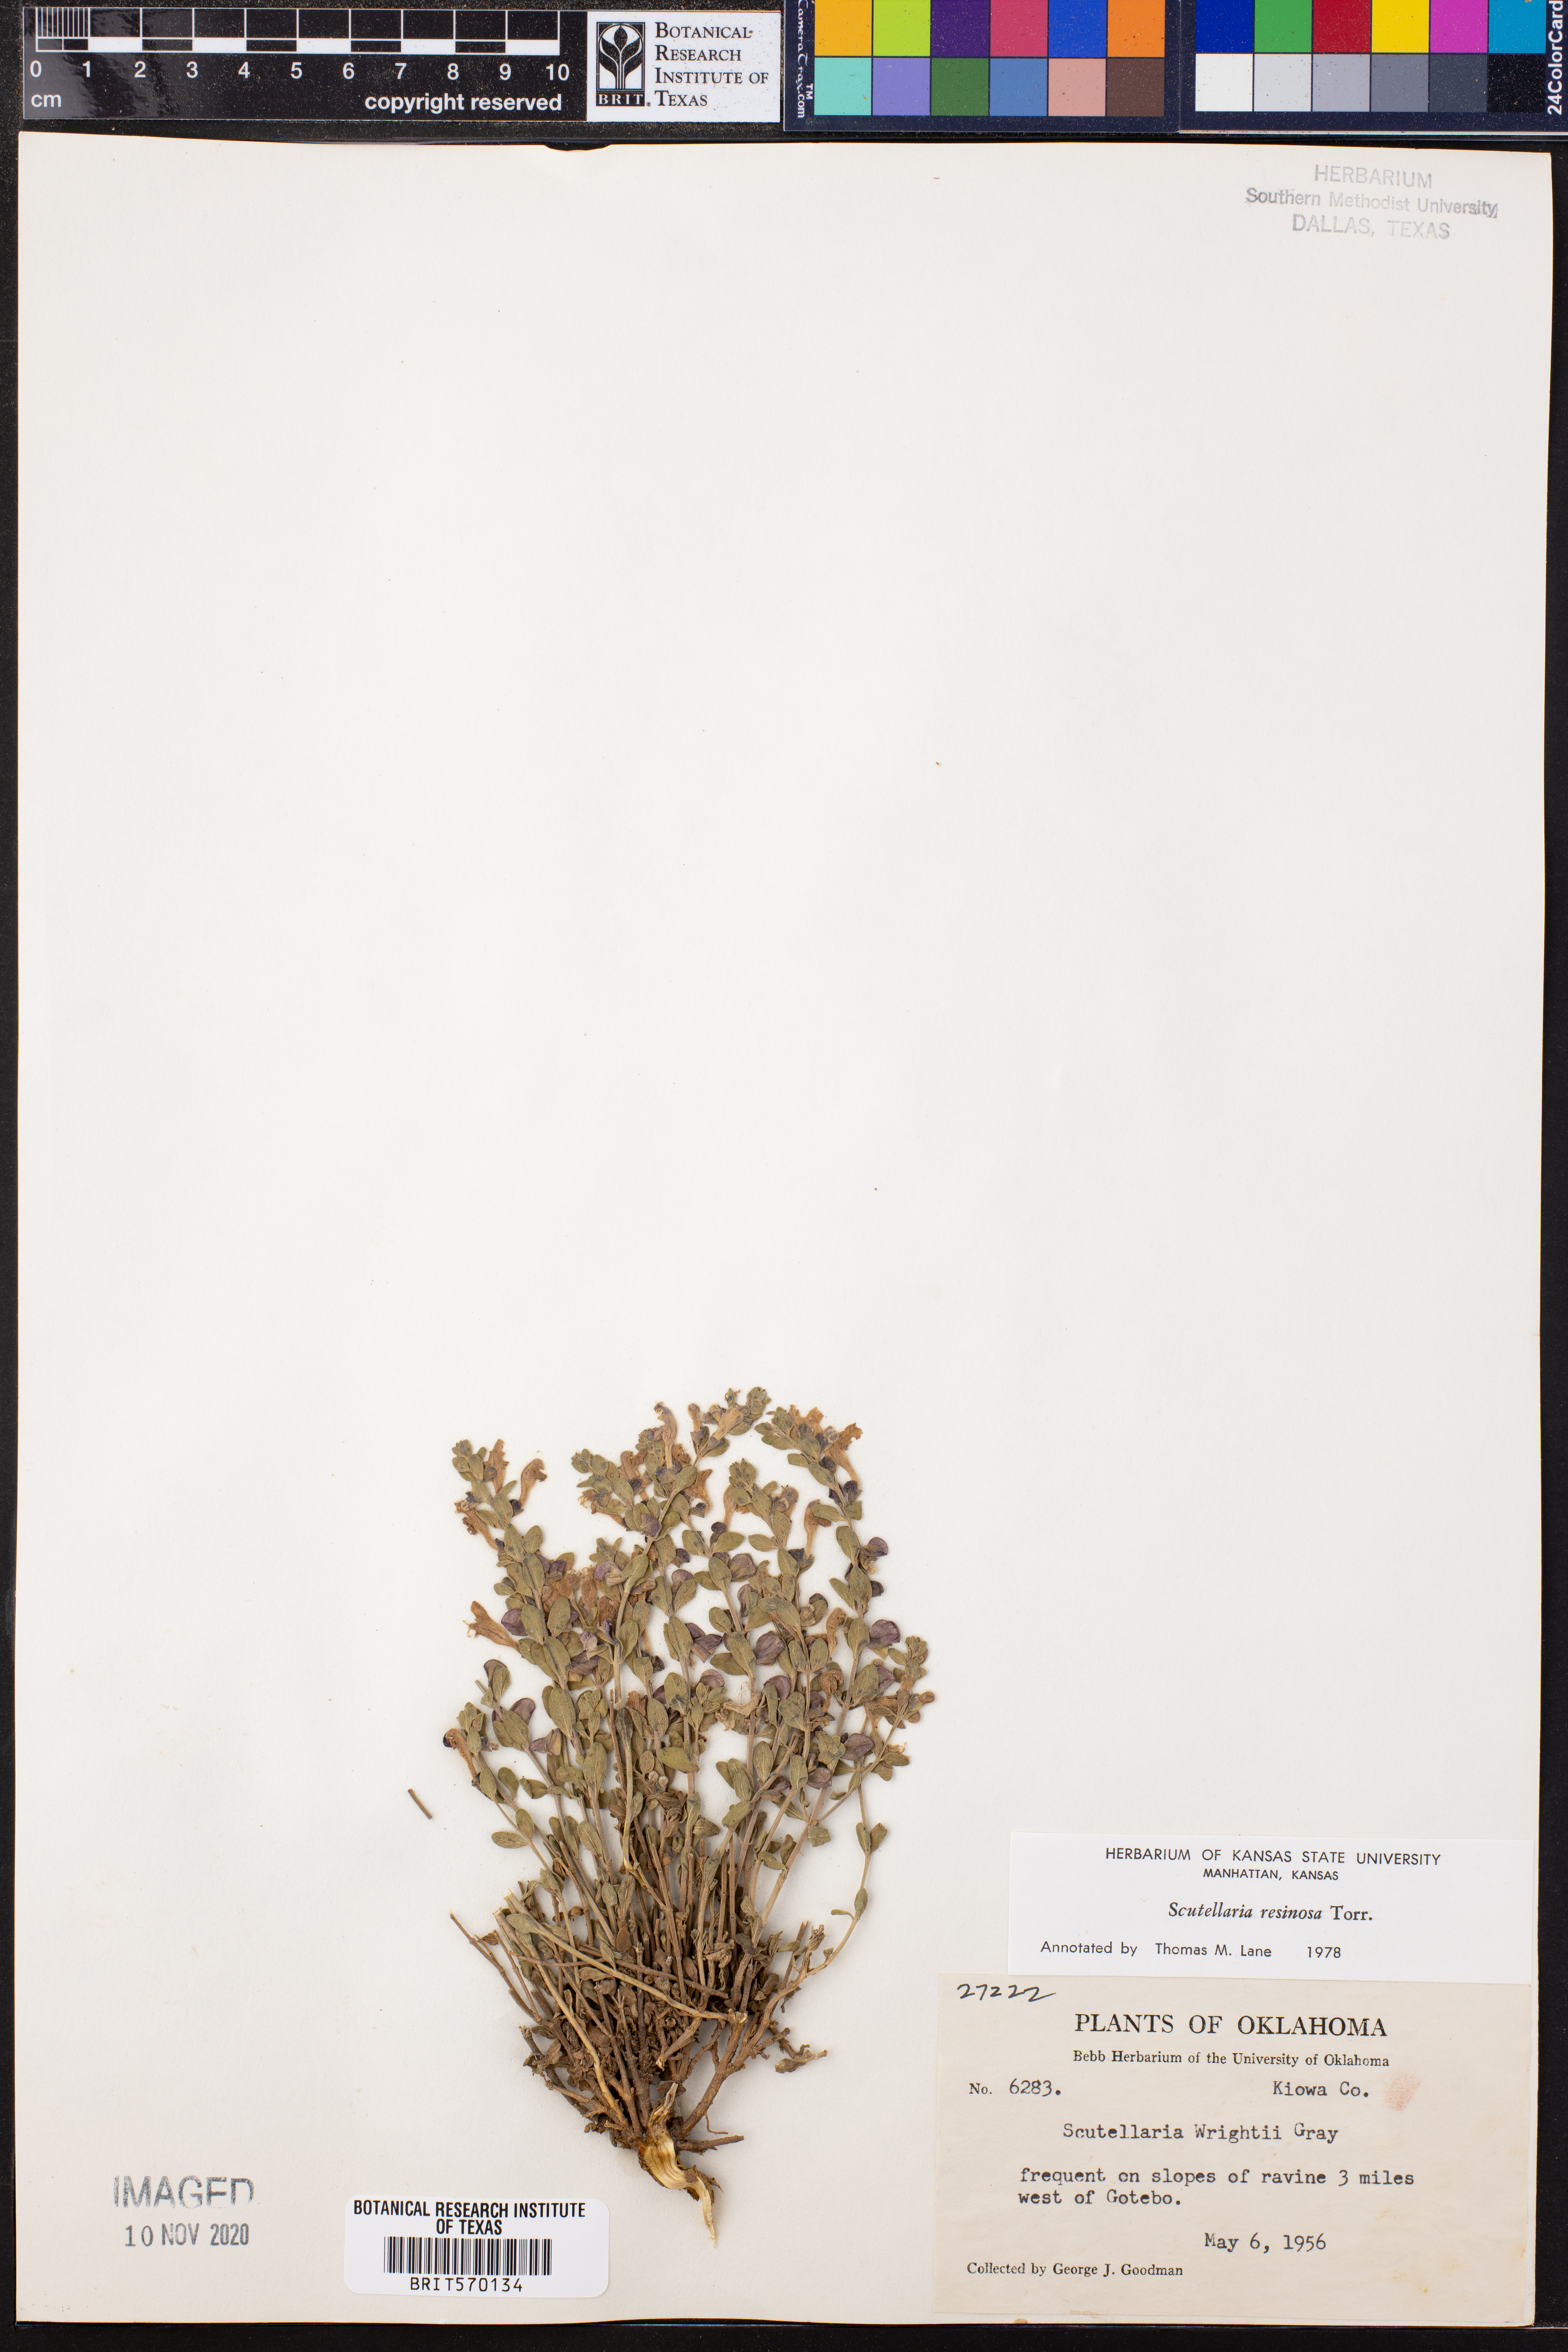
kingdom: Plantae
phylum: Tracheophyta
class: Magnoliopsida
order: Lamiales
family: Lamiaceae
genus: Scutellaria
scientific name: Scutellaria resinosa
